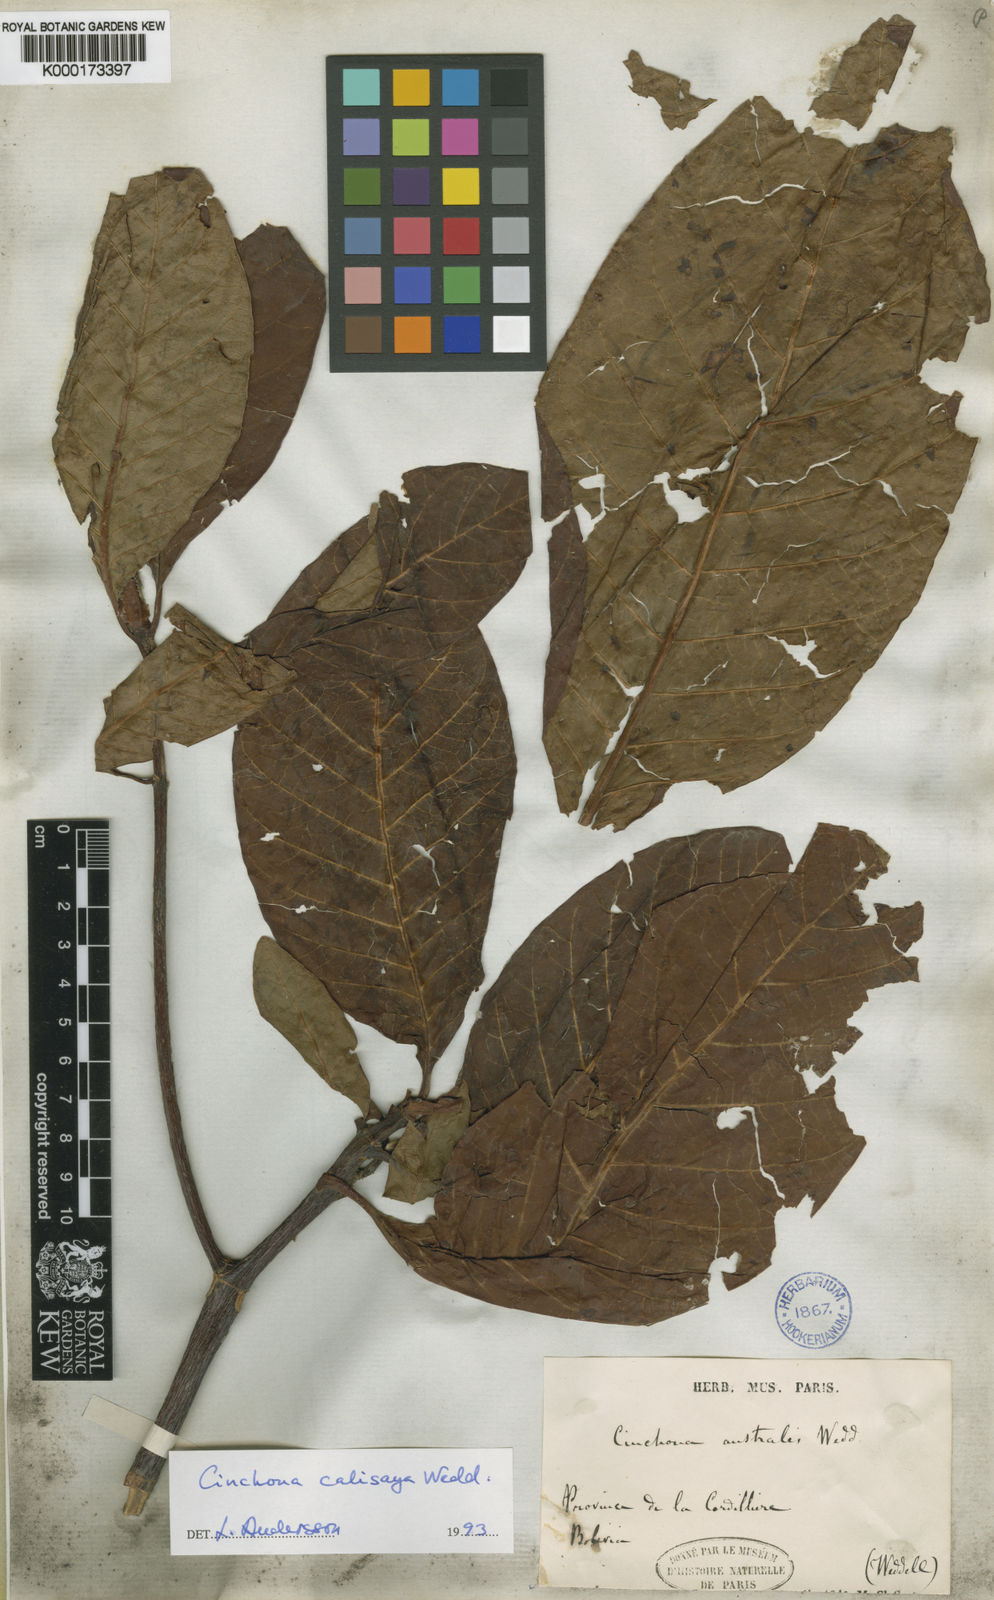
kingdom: Plantae
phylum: Tracheophyta
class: Magnoliopsida
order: Gentianales
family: Rubiaceae
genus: Cinchona
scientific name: Cinchona calisaya
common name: Ledgerbark
